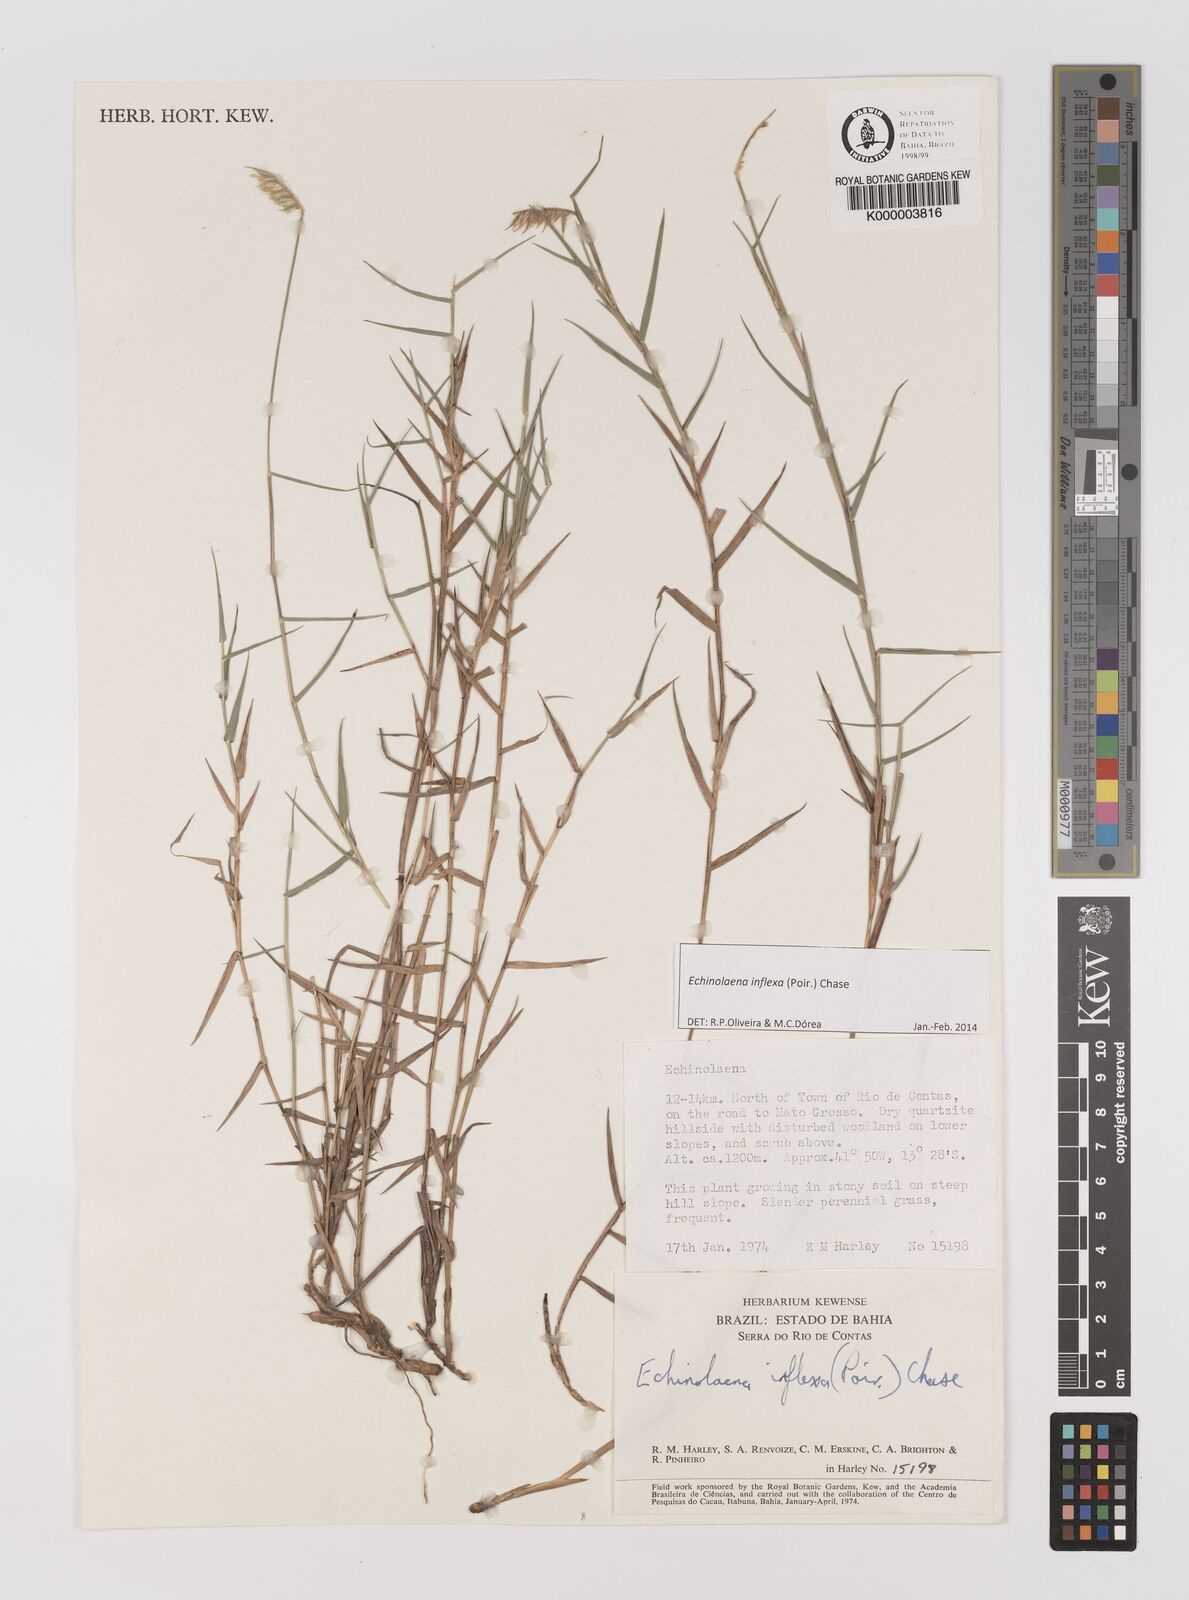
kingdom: Plantae
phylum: Tracheophyta
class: Liliopsida
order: Poales
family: Poaceae
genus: Echinolaena
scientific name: Echinolaena inflexa
